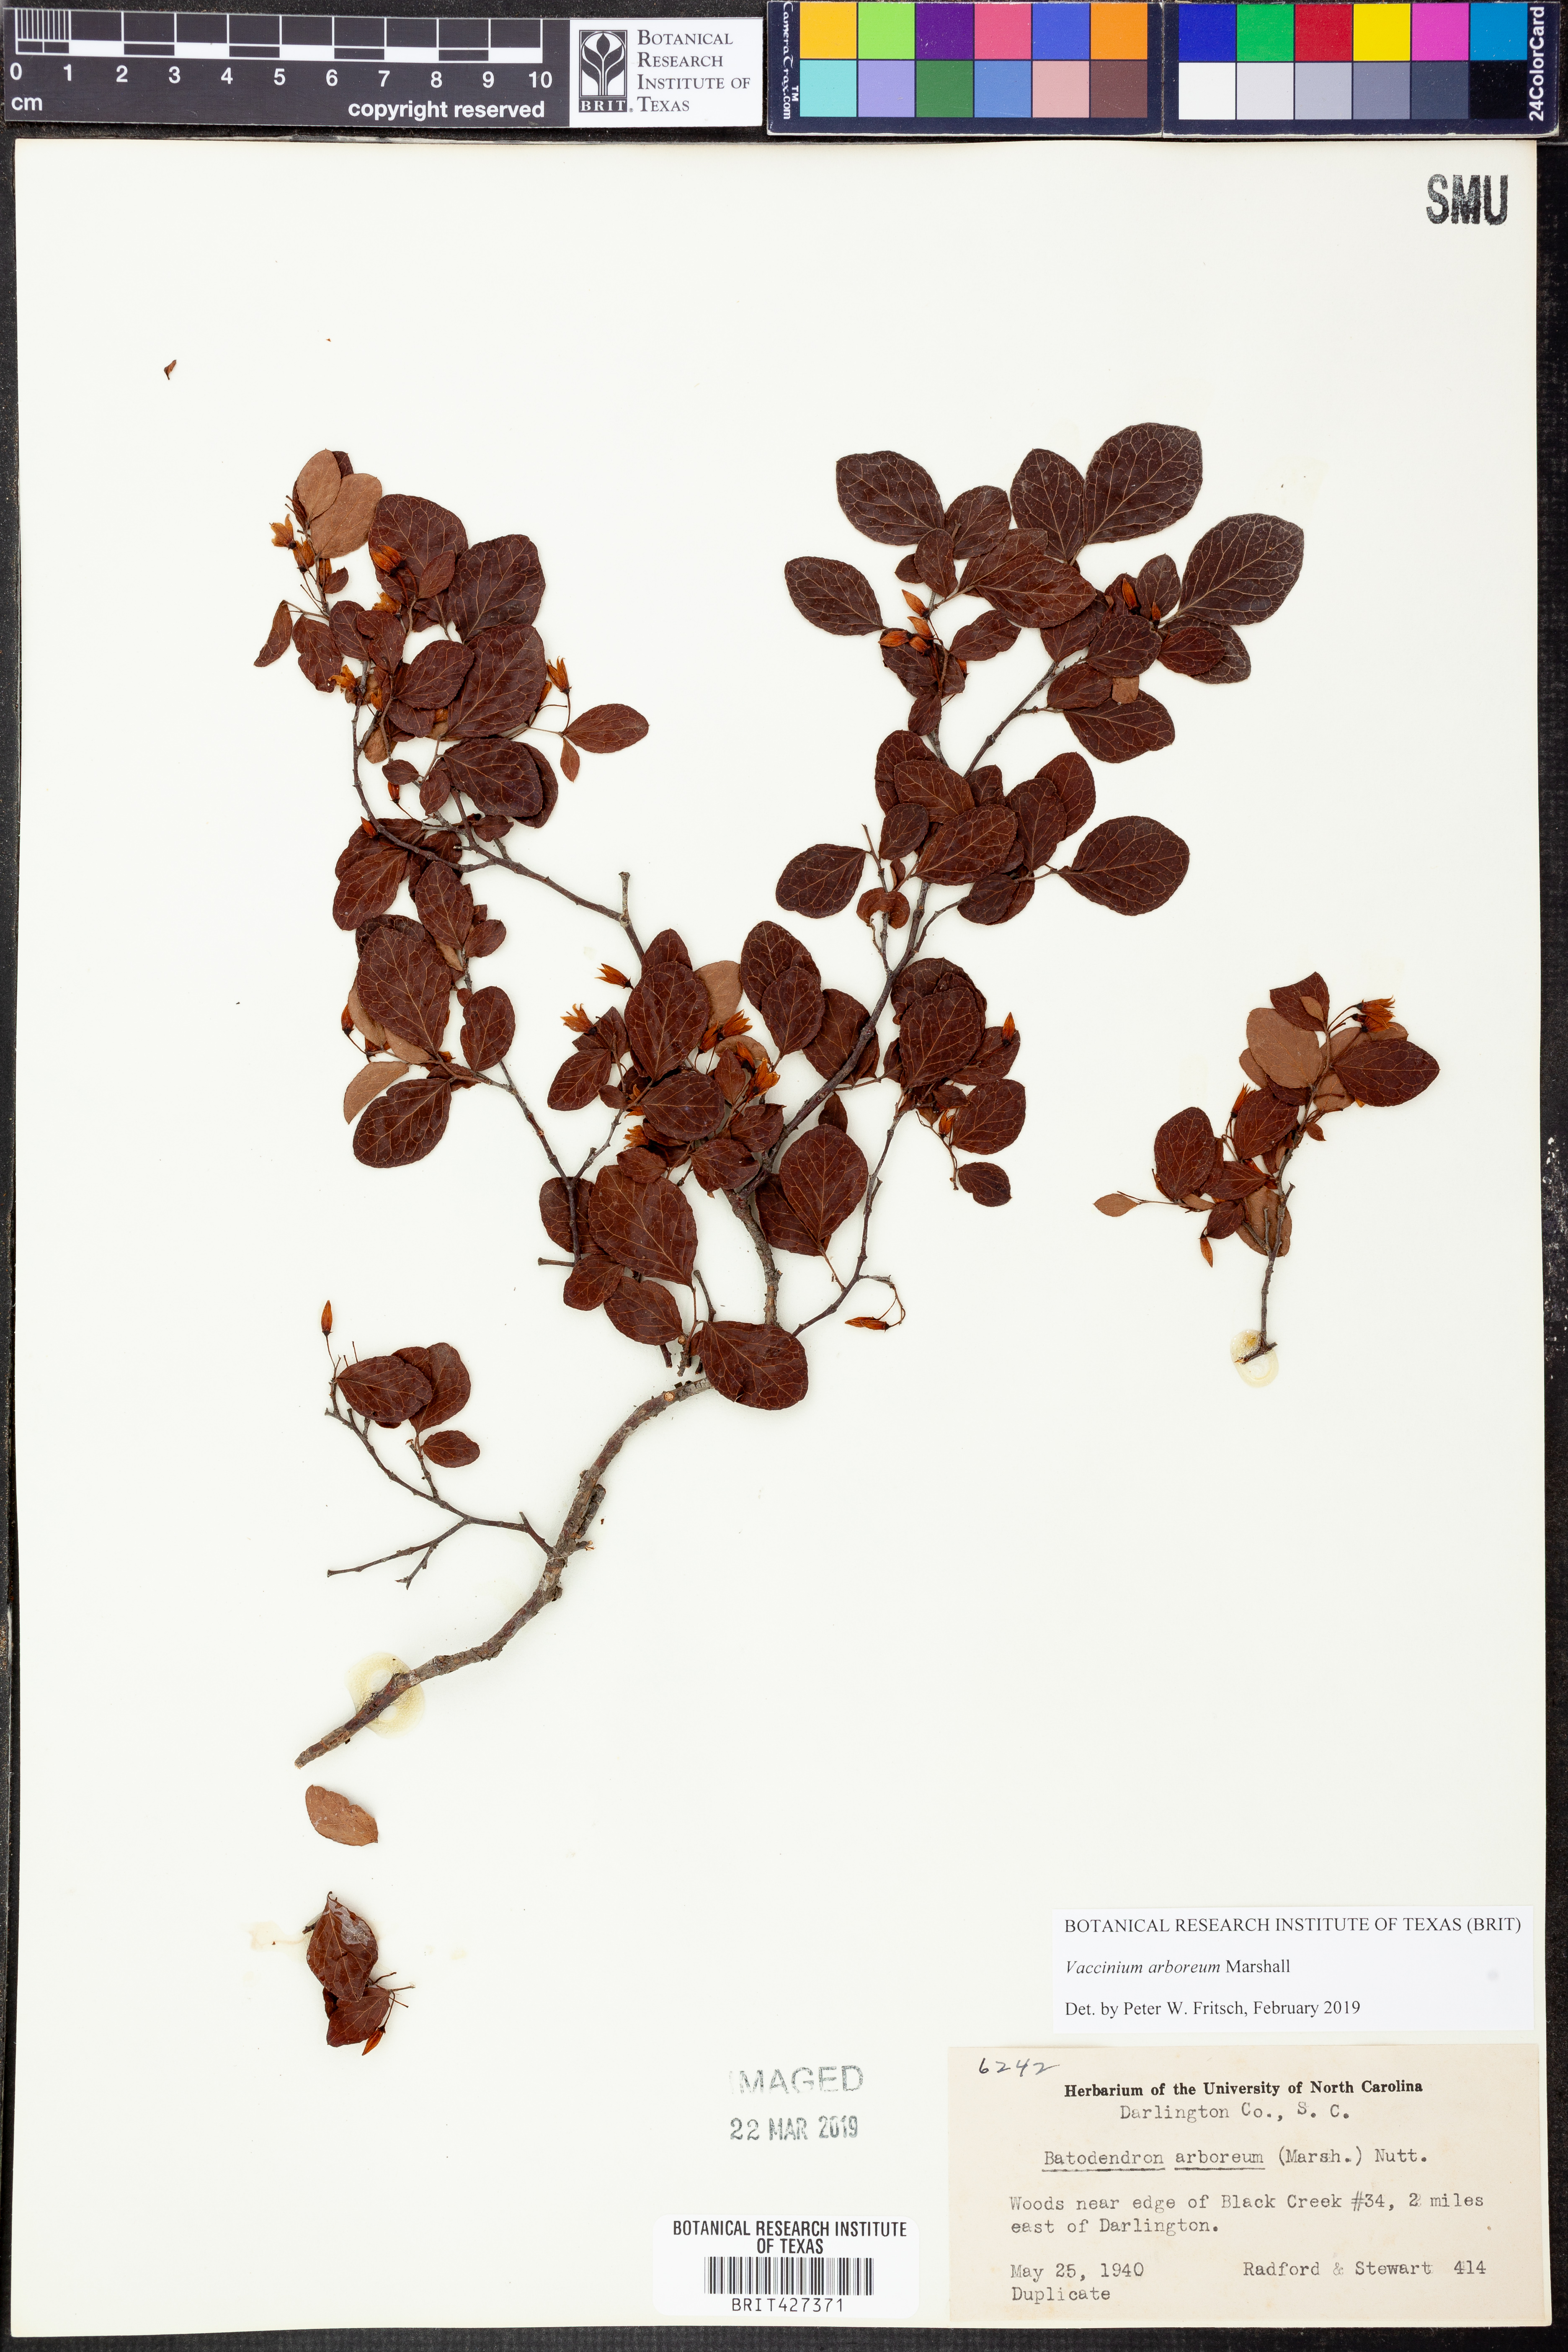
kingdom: Plantae
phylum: Tracheophyta
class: Magnoliopsida
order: Ericales
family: Ericaceae
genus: Vaccinium
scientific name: Vaccinium arboreum
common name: Farkleberry
